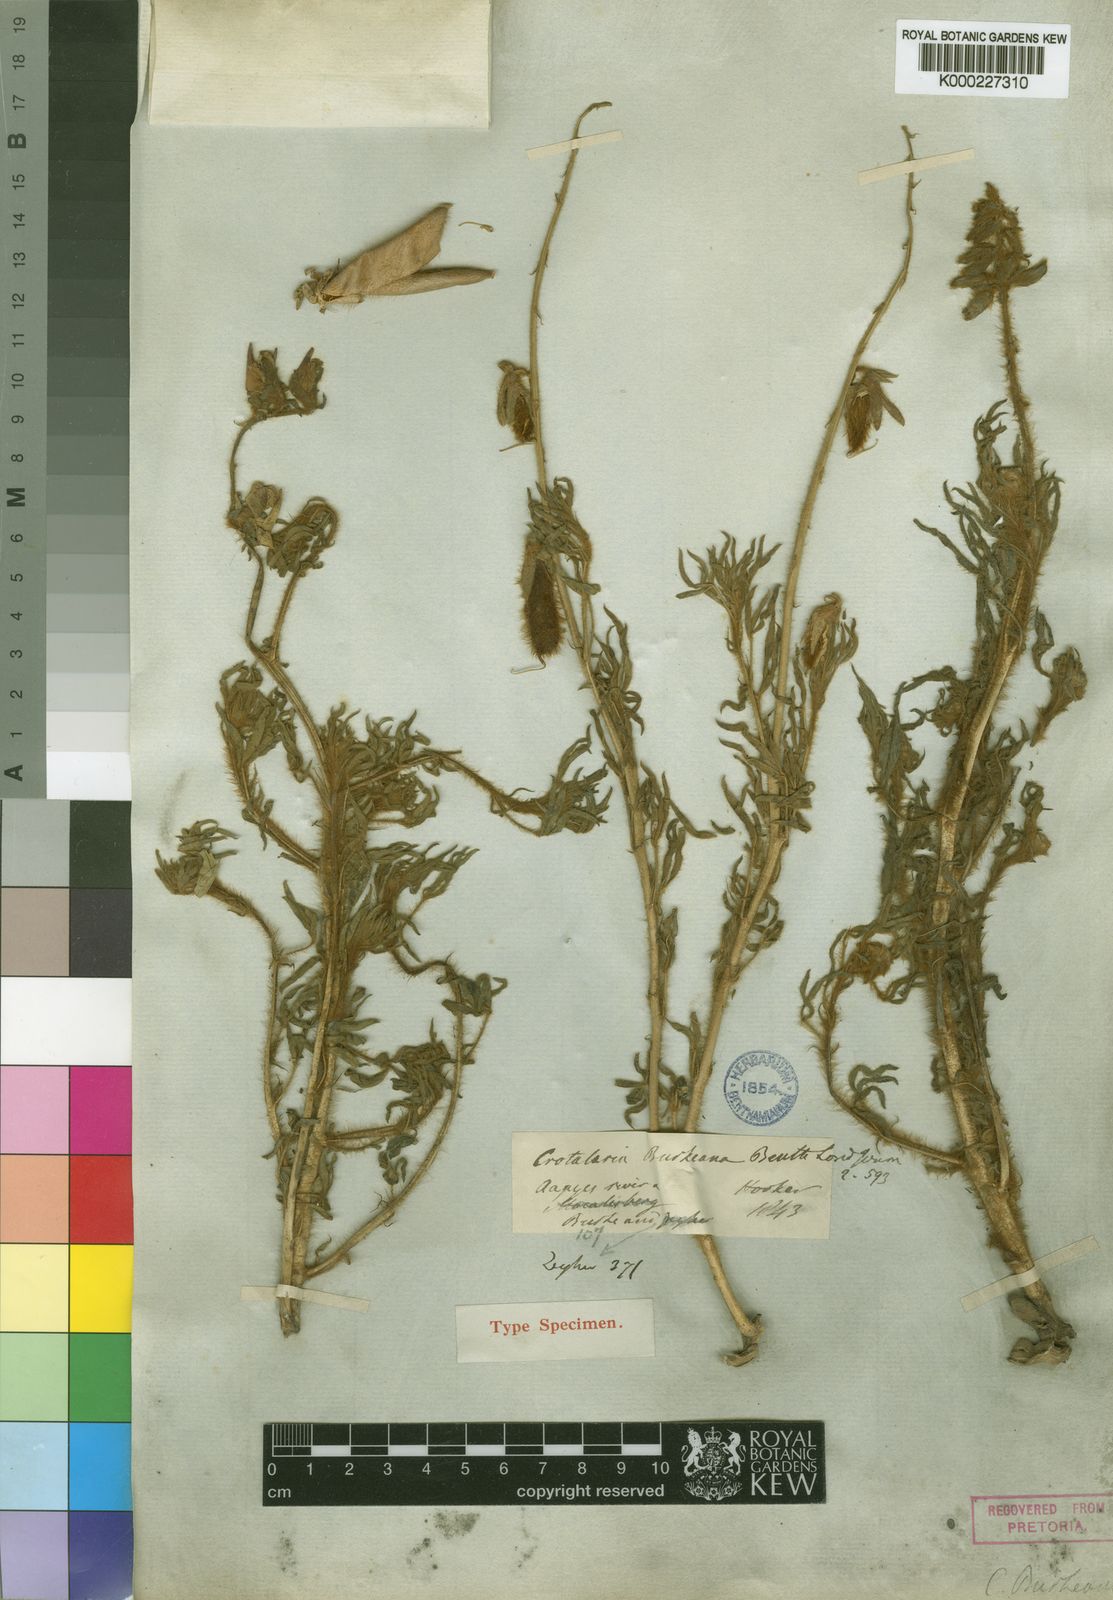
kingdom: Plantae
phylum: Tracheophyta
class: Magnoliopsida
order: Fabales
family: Fabaceae
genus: Crotalaria
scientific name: Crotalaria burkeana
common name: Rattlebush
